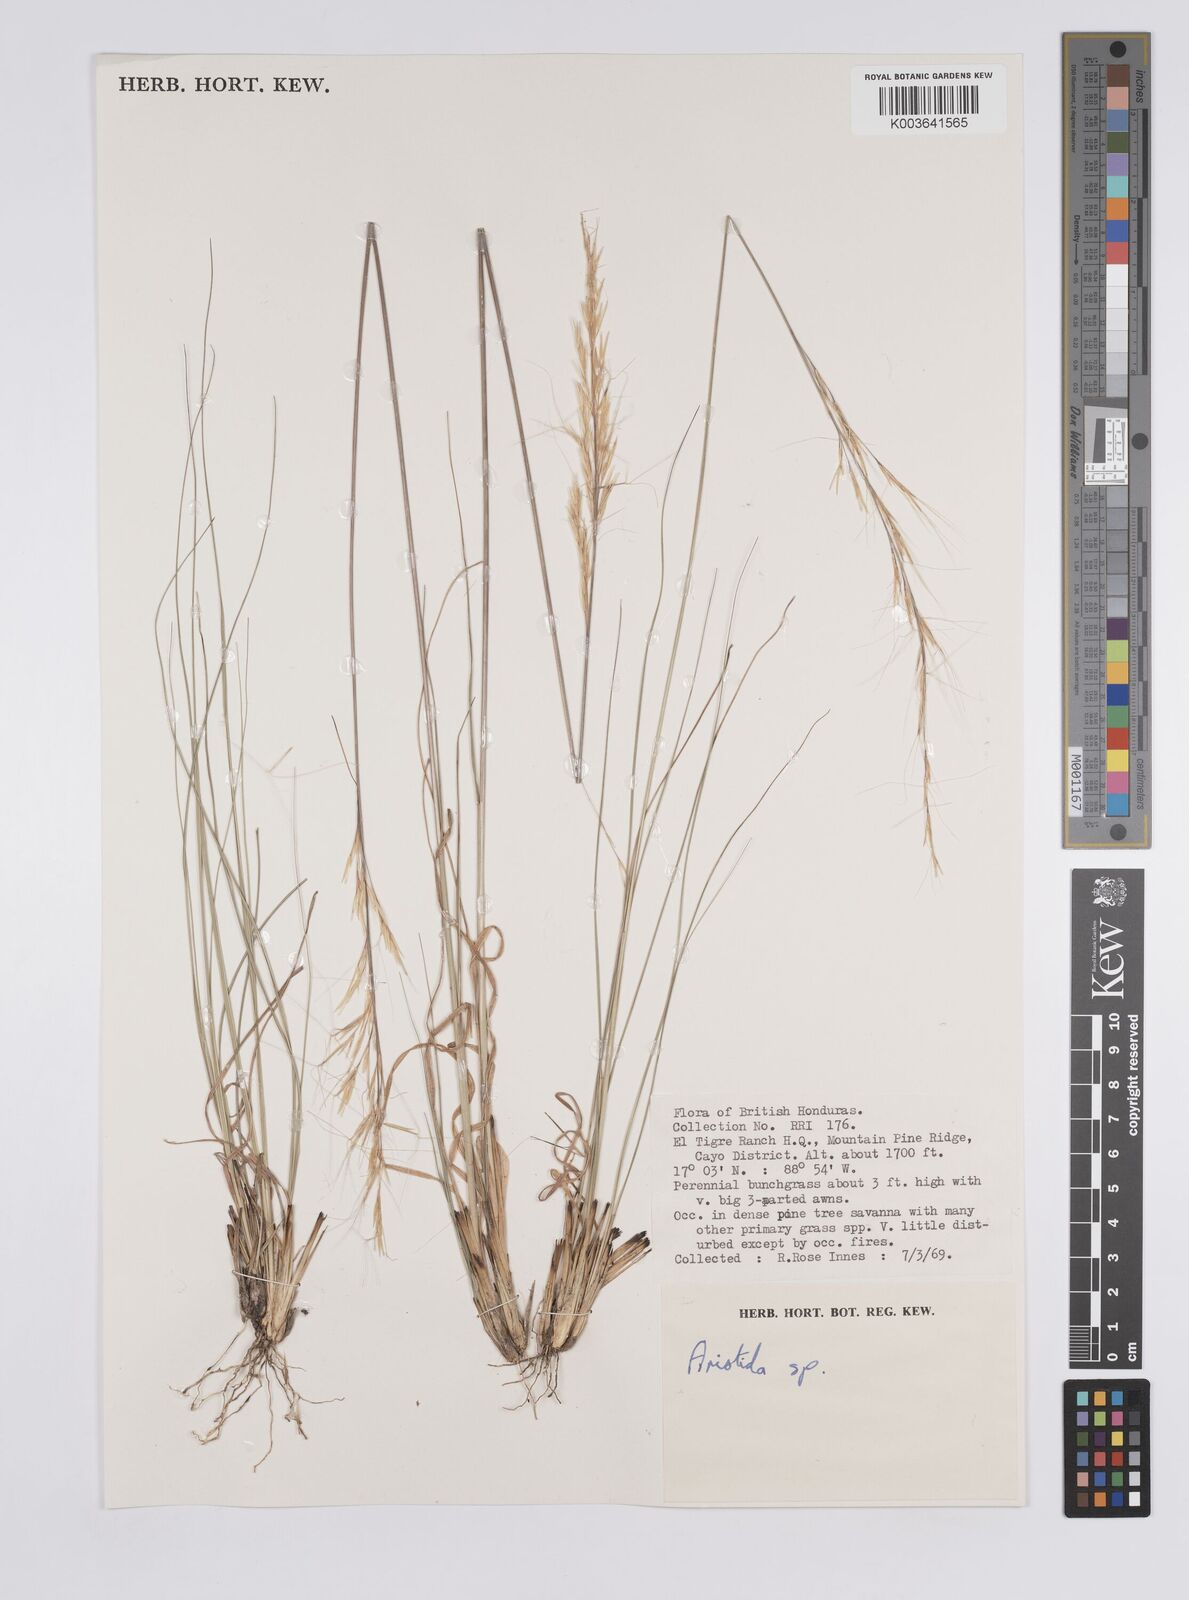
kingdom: Plantae
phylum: Tracheophyta
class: Liliopsida
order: Poales
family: Poaceae
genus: Aristida
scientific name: Aristida
